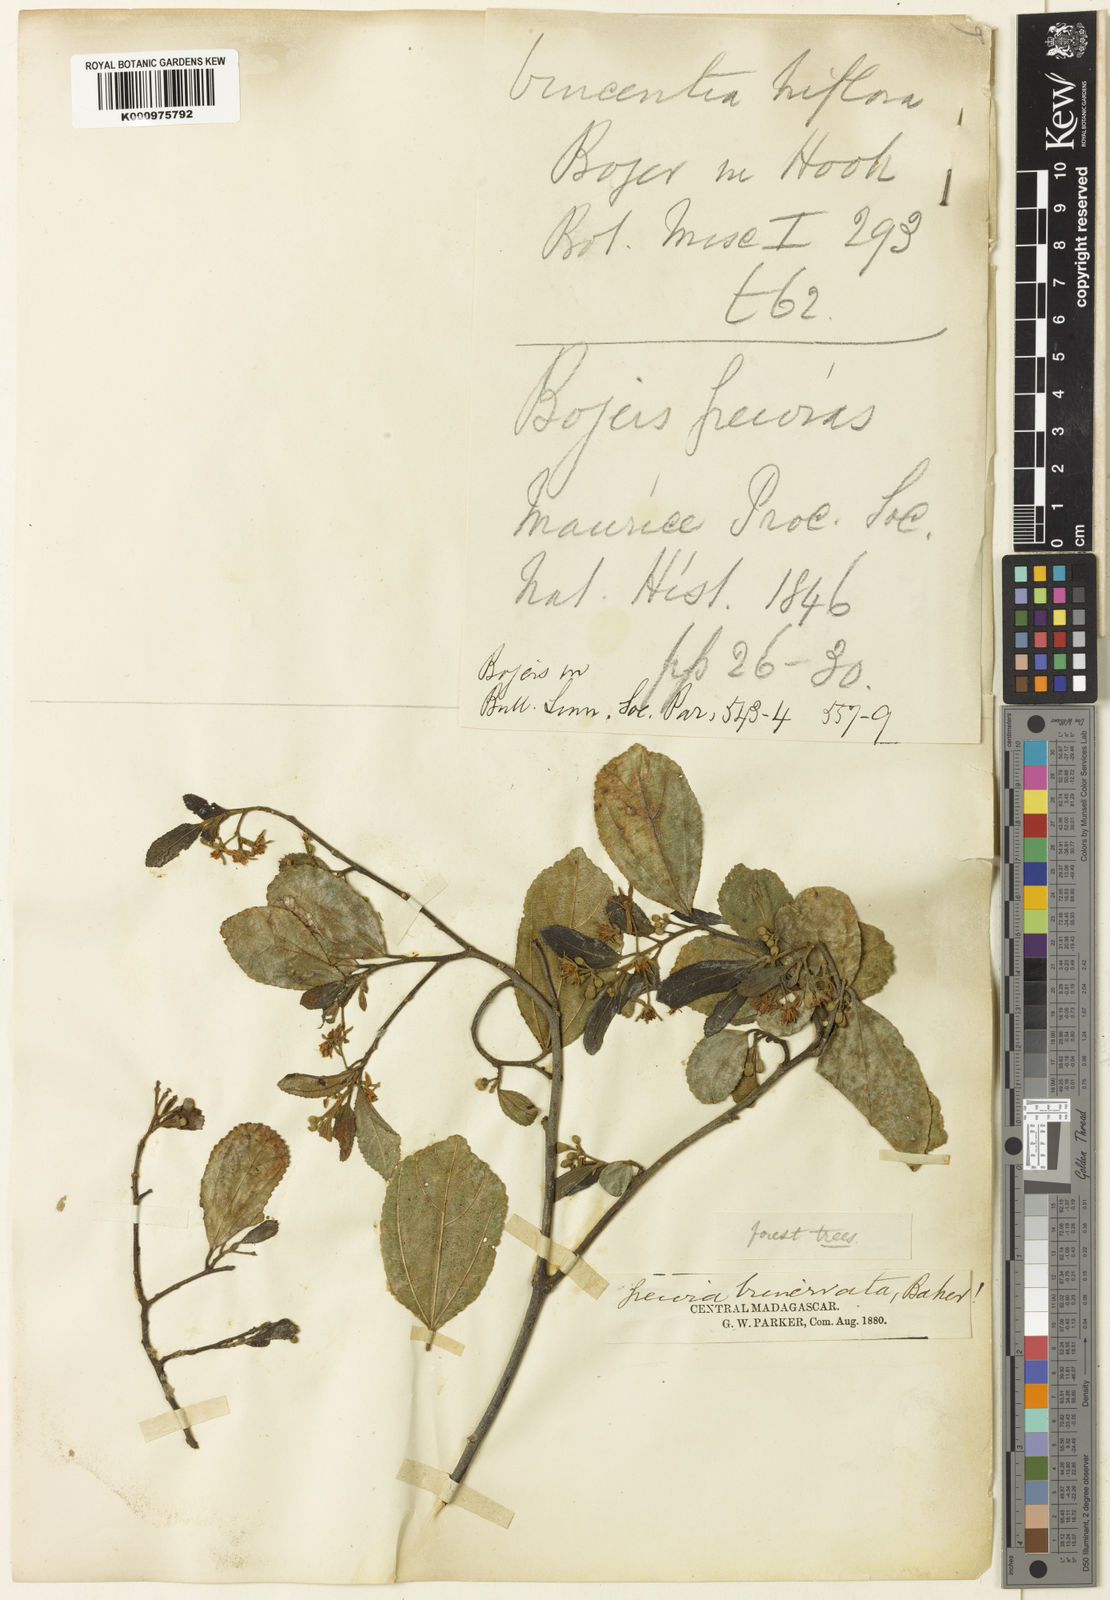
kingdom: Plantae
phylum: Tracheophyta
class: Magnoliopsida
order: Malvales
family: Malvaceae
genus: Grewia
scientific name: Grewia cuneifolia
